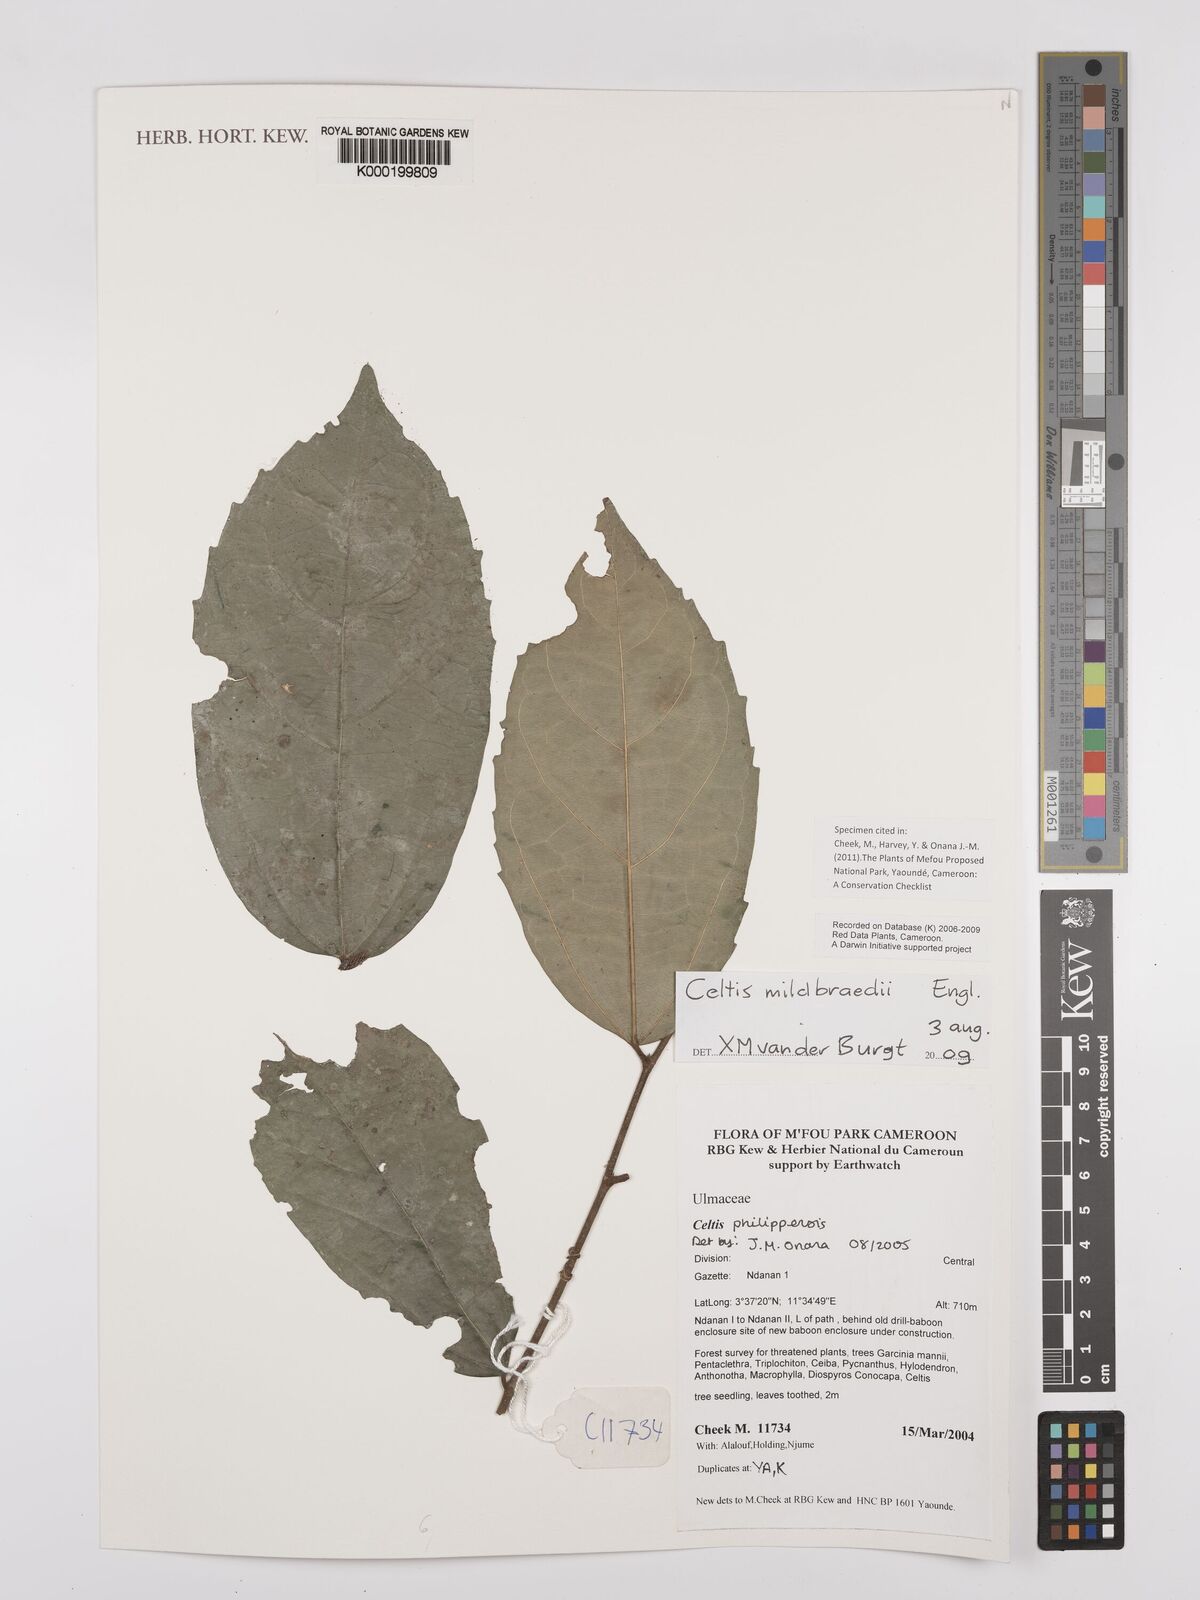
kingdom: Plantae
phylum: Tracheophyta
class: Magnoliopsida
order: Rosales
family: Cannabaceae
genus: Celtis
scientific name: Celtis mildbraedii
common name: Red-fruited stinkwood
